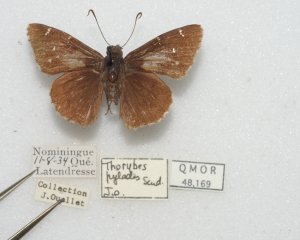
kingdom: Animalia
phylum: Arthropoda
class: Insecta
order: Lepidoptera
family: Hesperiidae
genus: Autochton
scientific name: Autochton
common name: Northern Cloudywing
